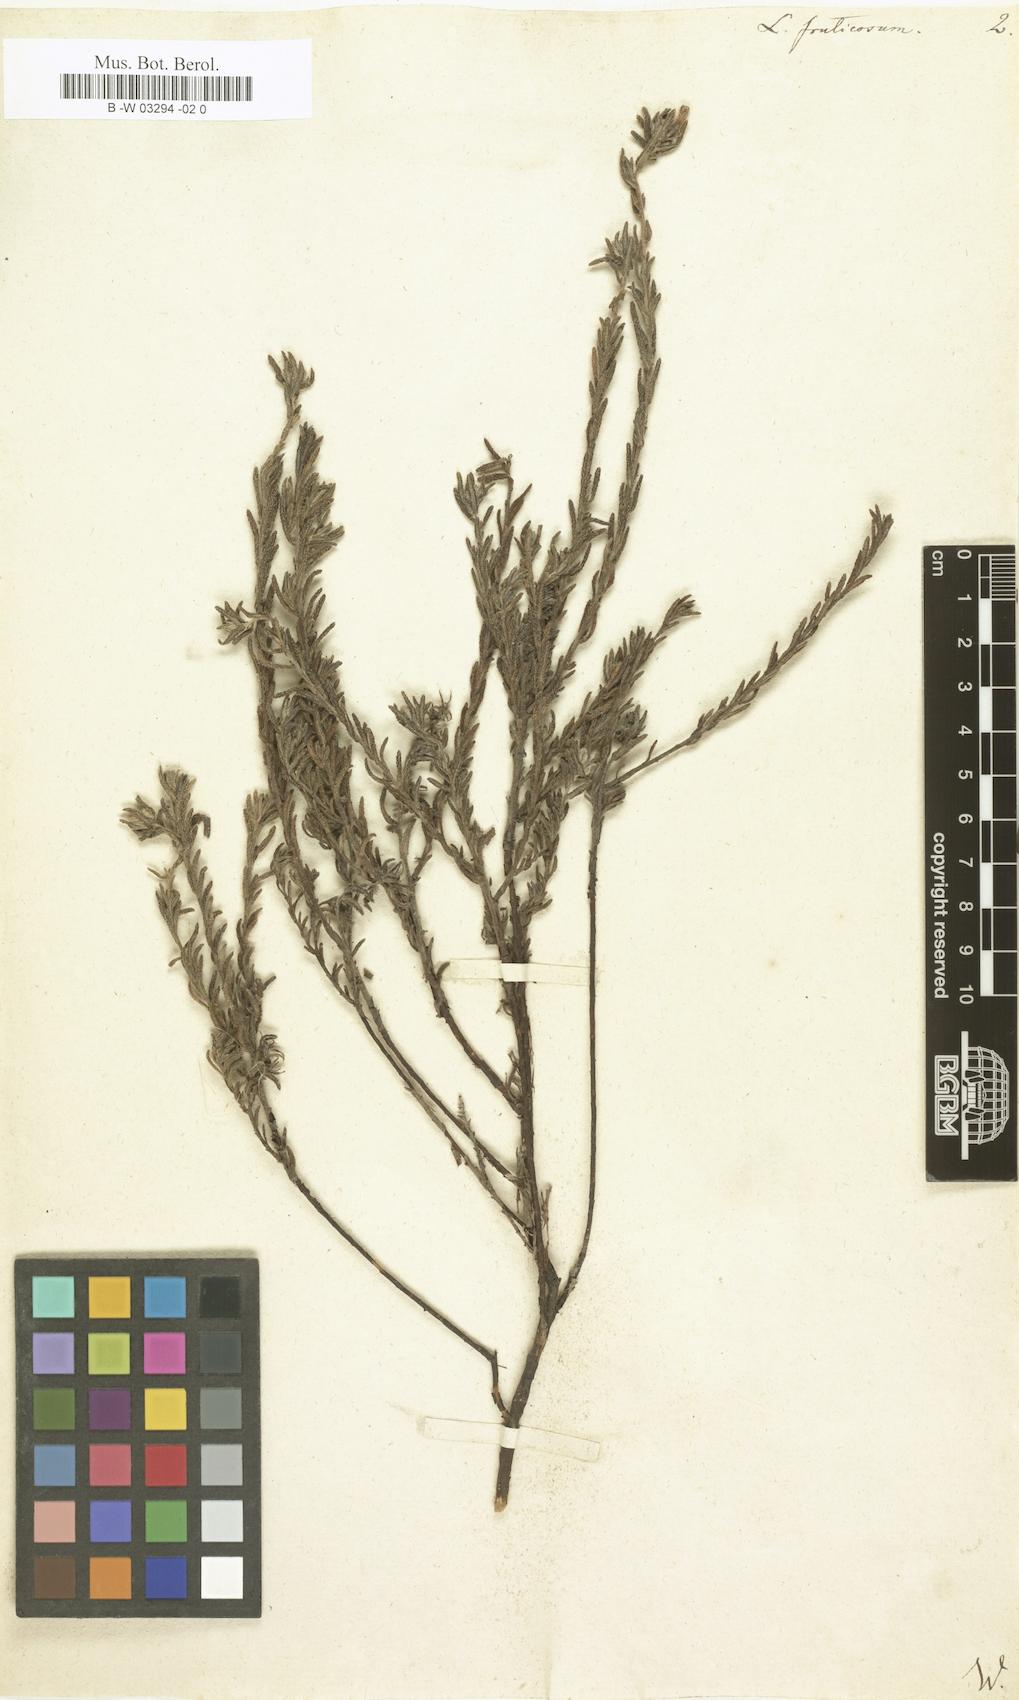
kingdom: Plantae
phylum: Tracheophyta
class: Magnoliopsida
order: Boraginales
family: Boraginaceae
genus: Lithodora
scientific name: Lithodora fruticosa
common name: Shrubby gromwell
